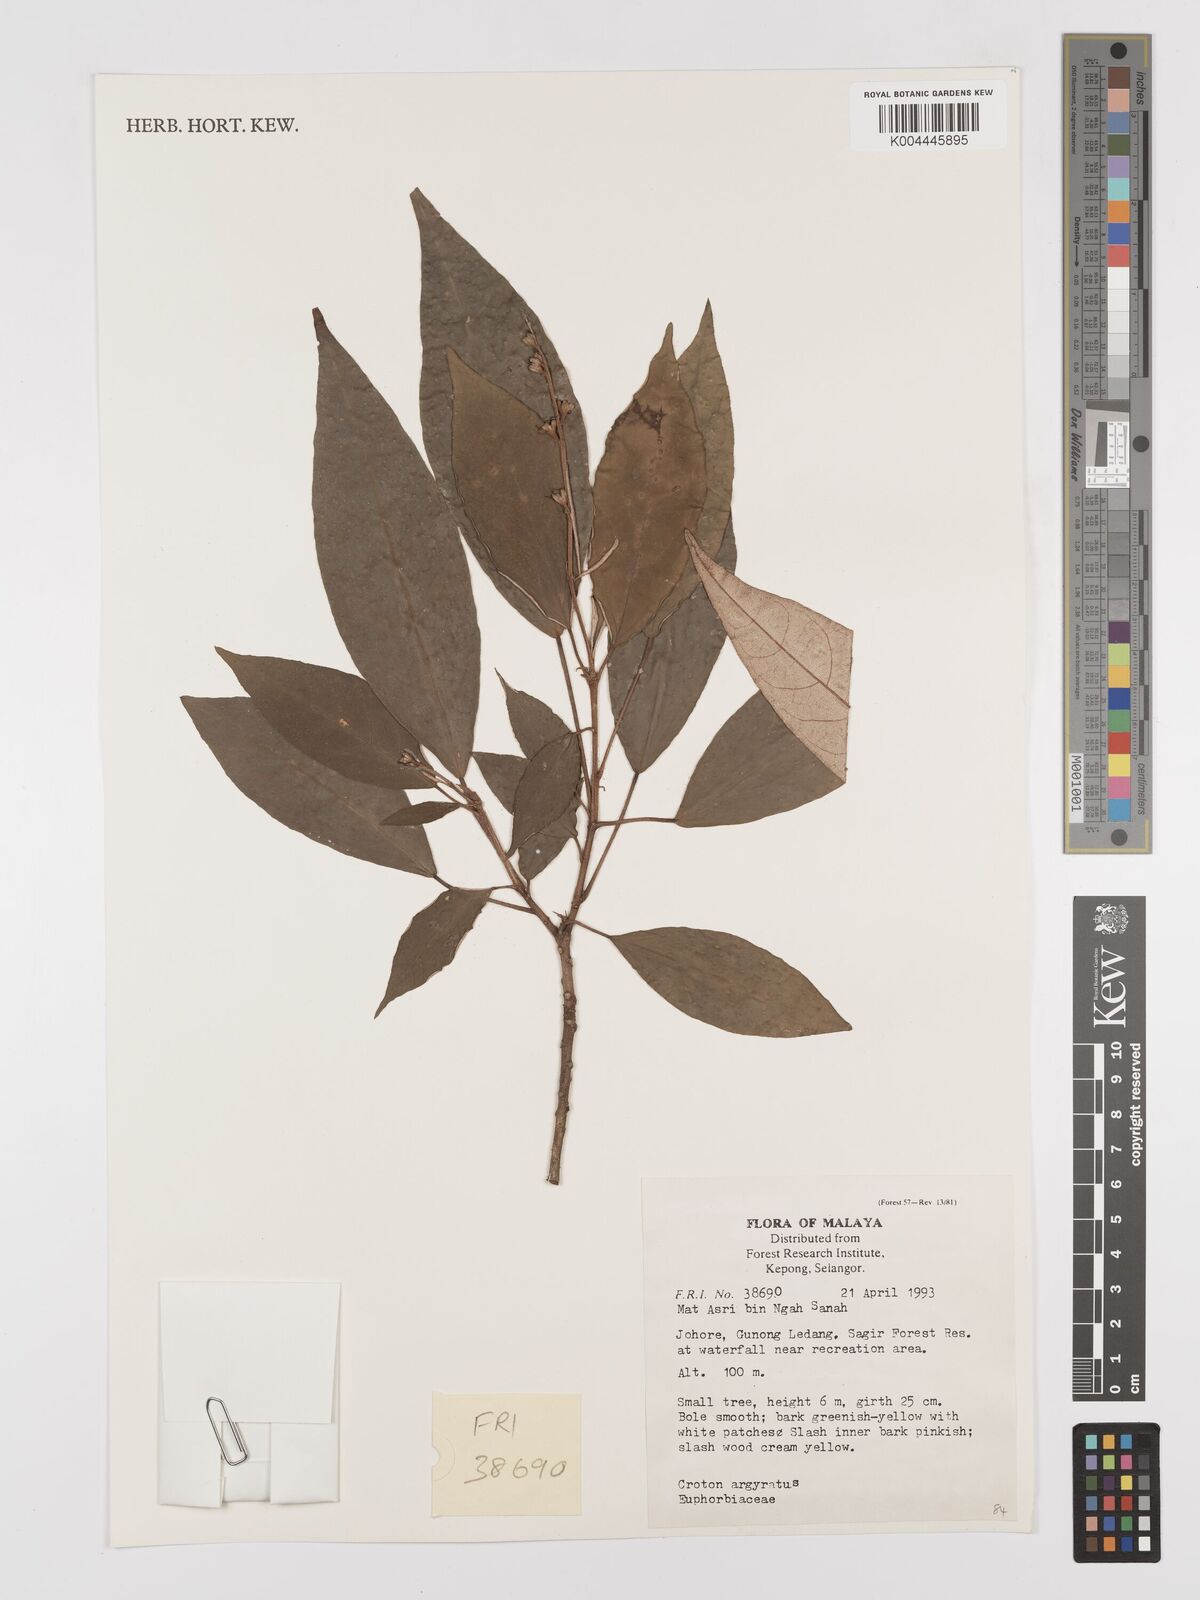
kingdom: Plantae
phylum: Tracheophyta
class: Magnoliopsida
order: Malpighiales
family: Euphorbiaceae
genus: Croton
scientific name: Croton argyratus
